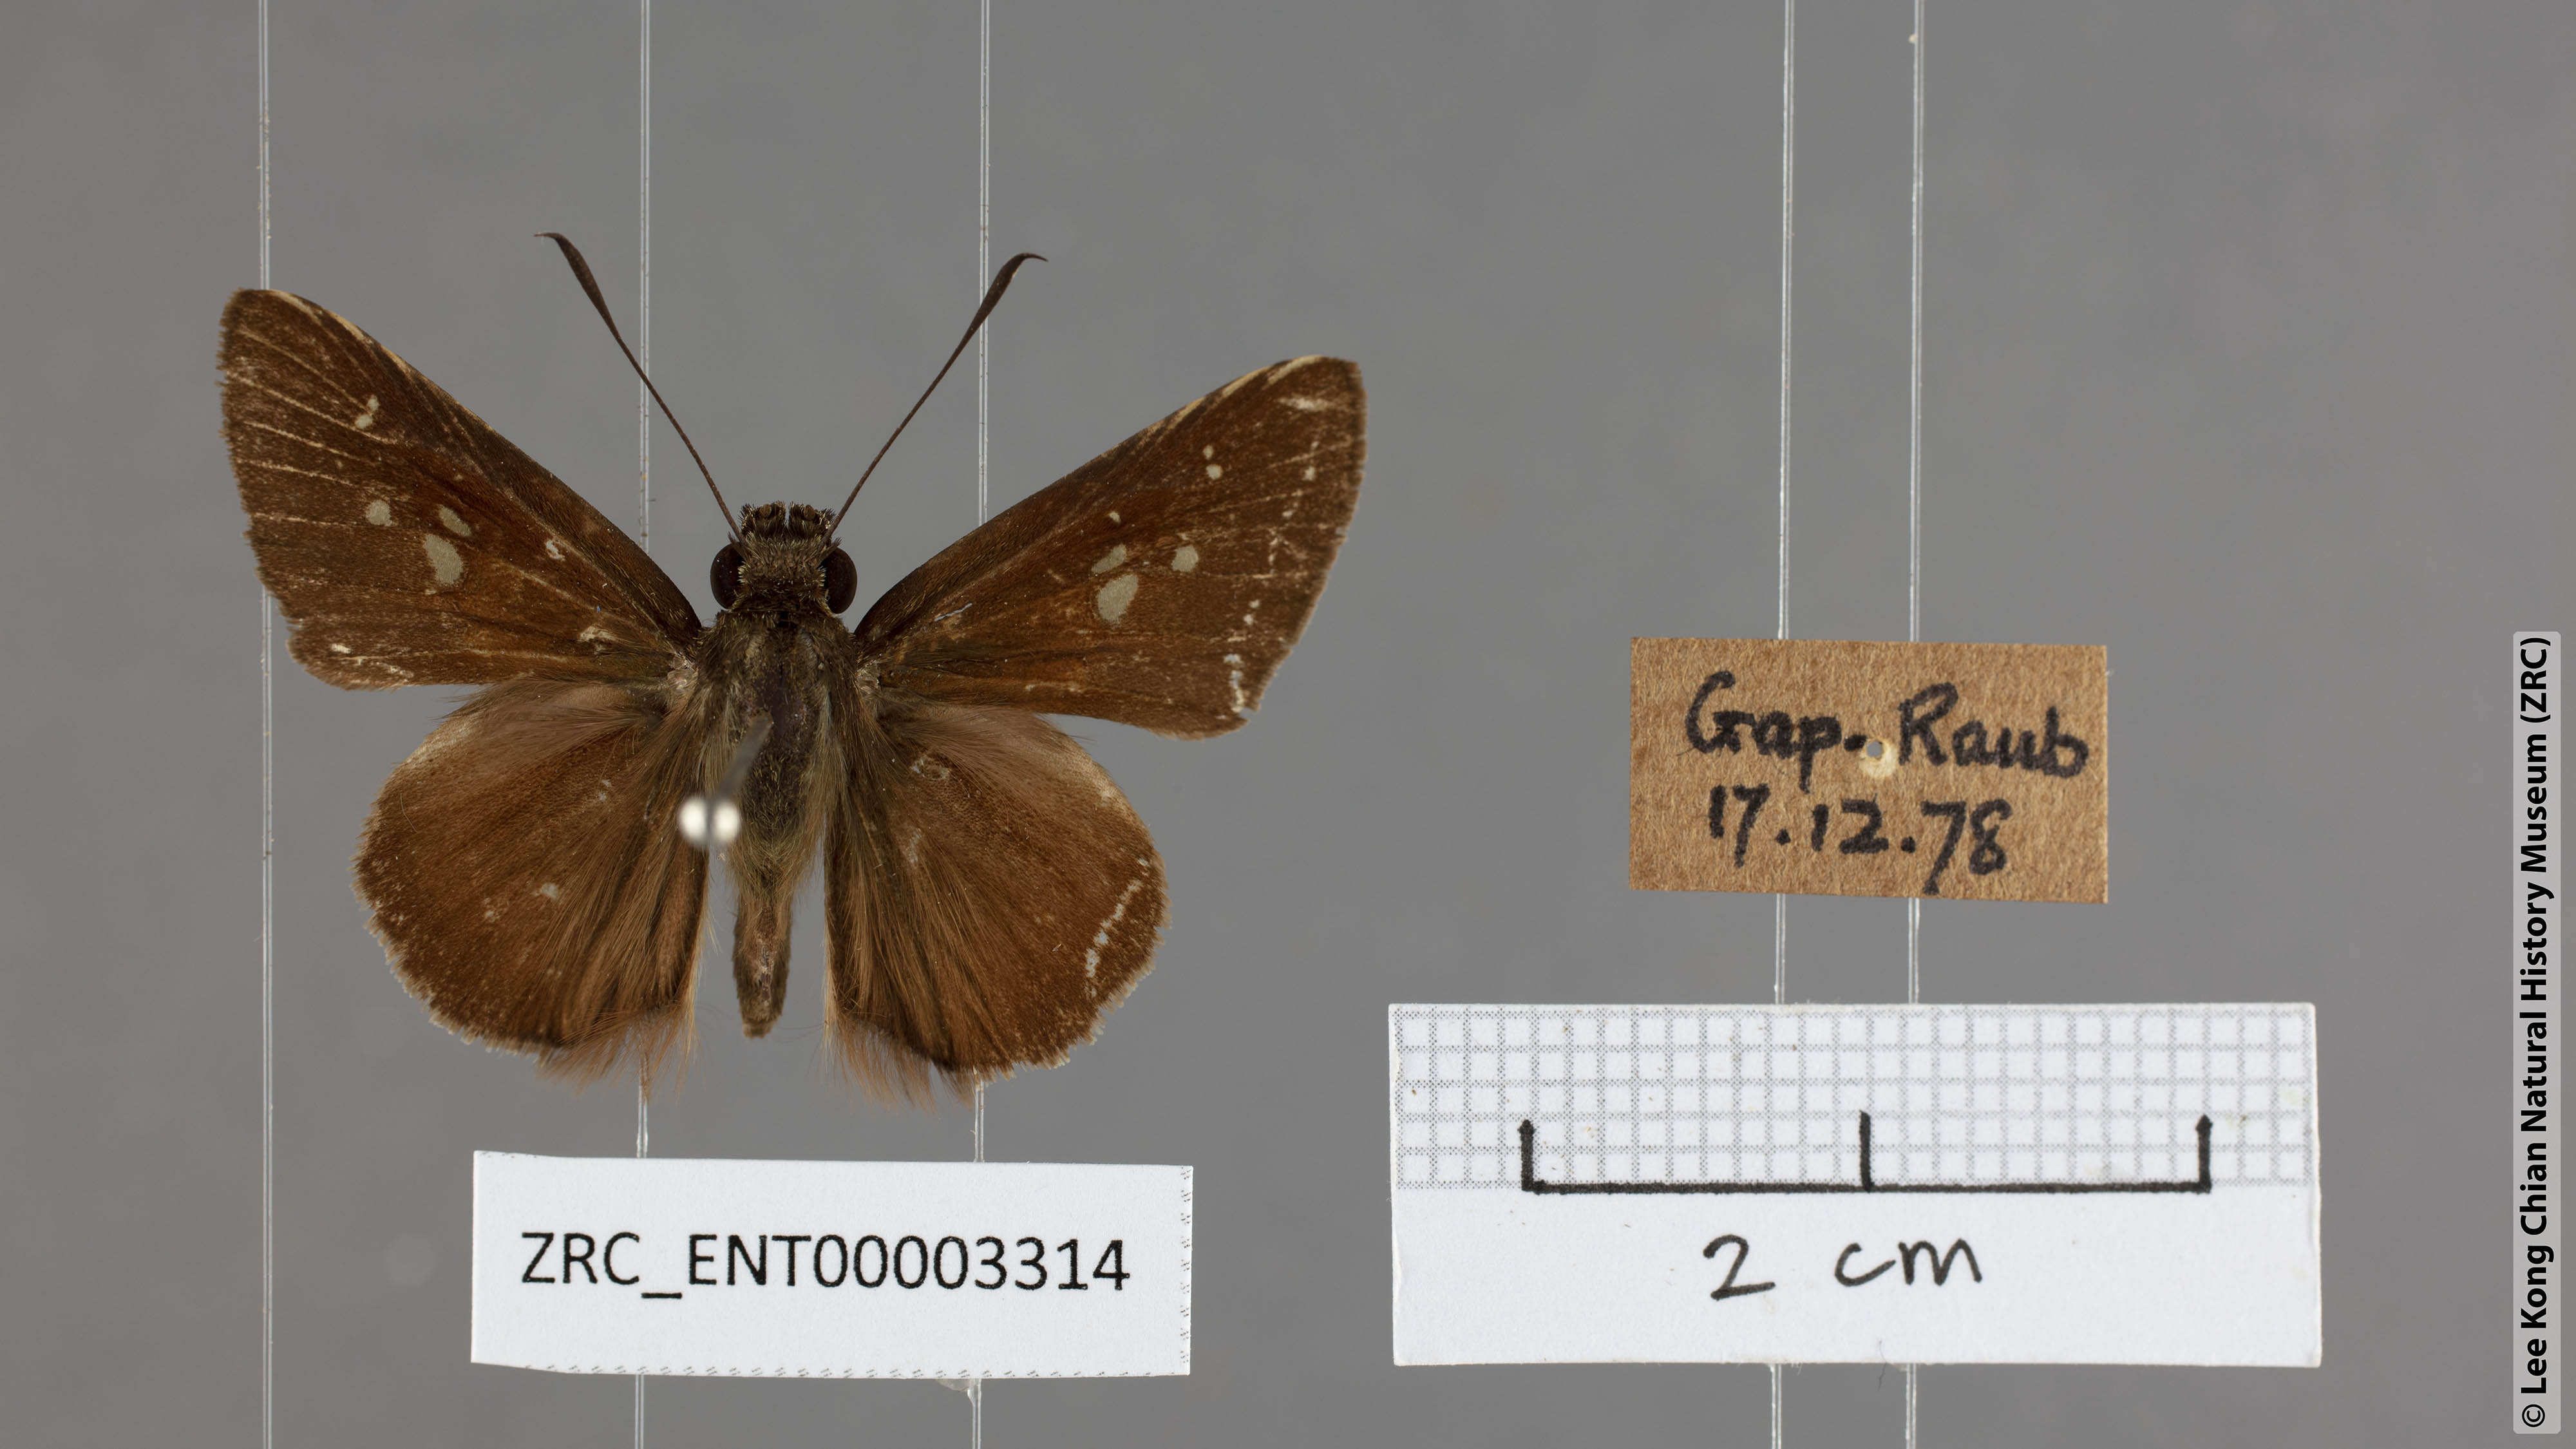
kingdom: Animalia
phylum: Arthropoda
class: Insecta
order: Lepidoptera
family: Hesperiidae
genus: Isma
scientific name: Isma protoclea
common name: Bicolour long-horned flitter
